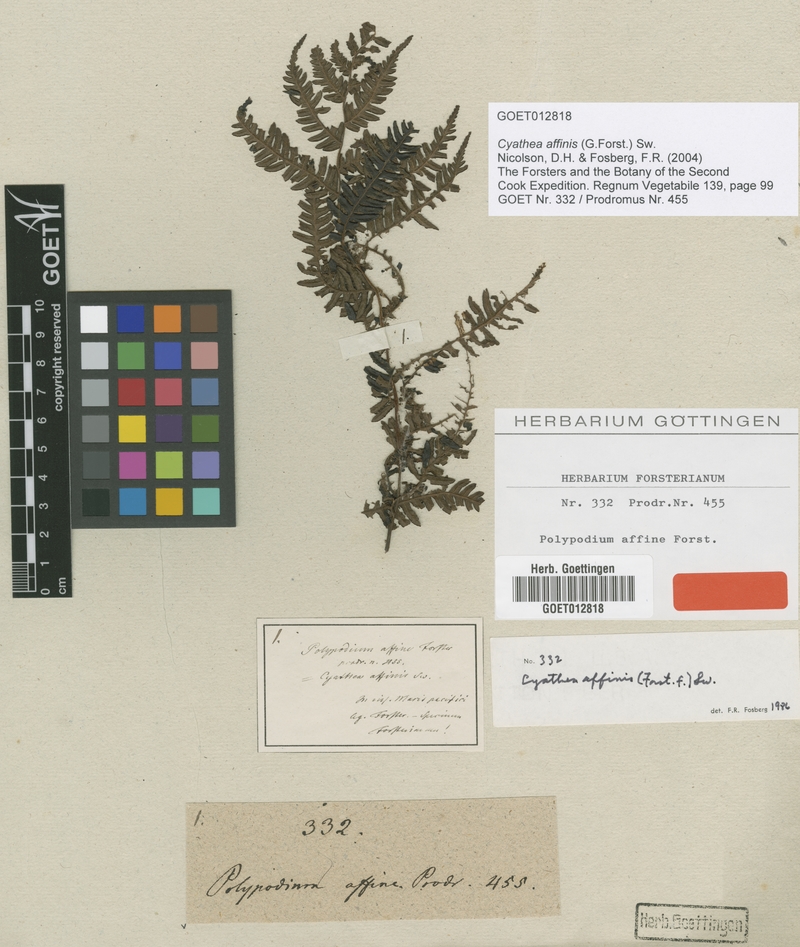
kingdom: Plantae
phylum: Tracheophyta
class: Polypodiopsida
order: Cyatheales
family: Cyatheaceae
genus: Alsophila
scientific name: Alsophila tahitensis
